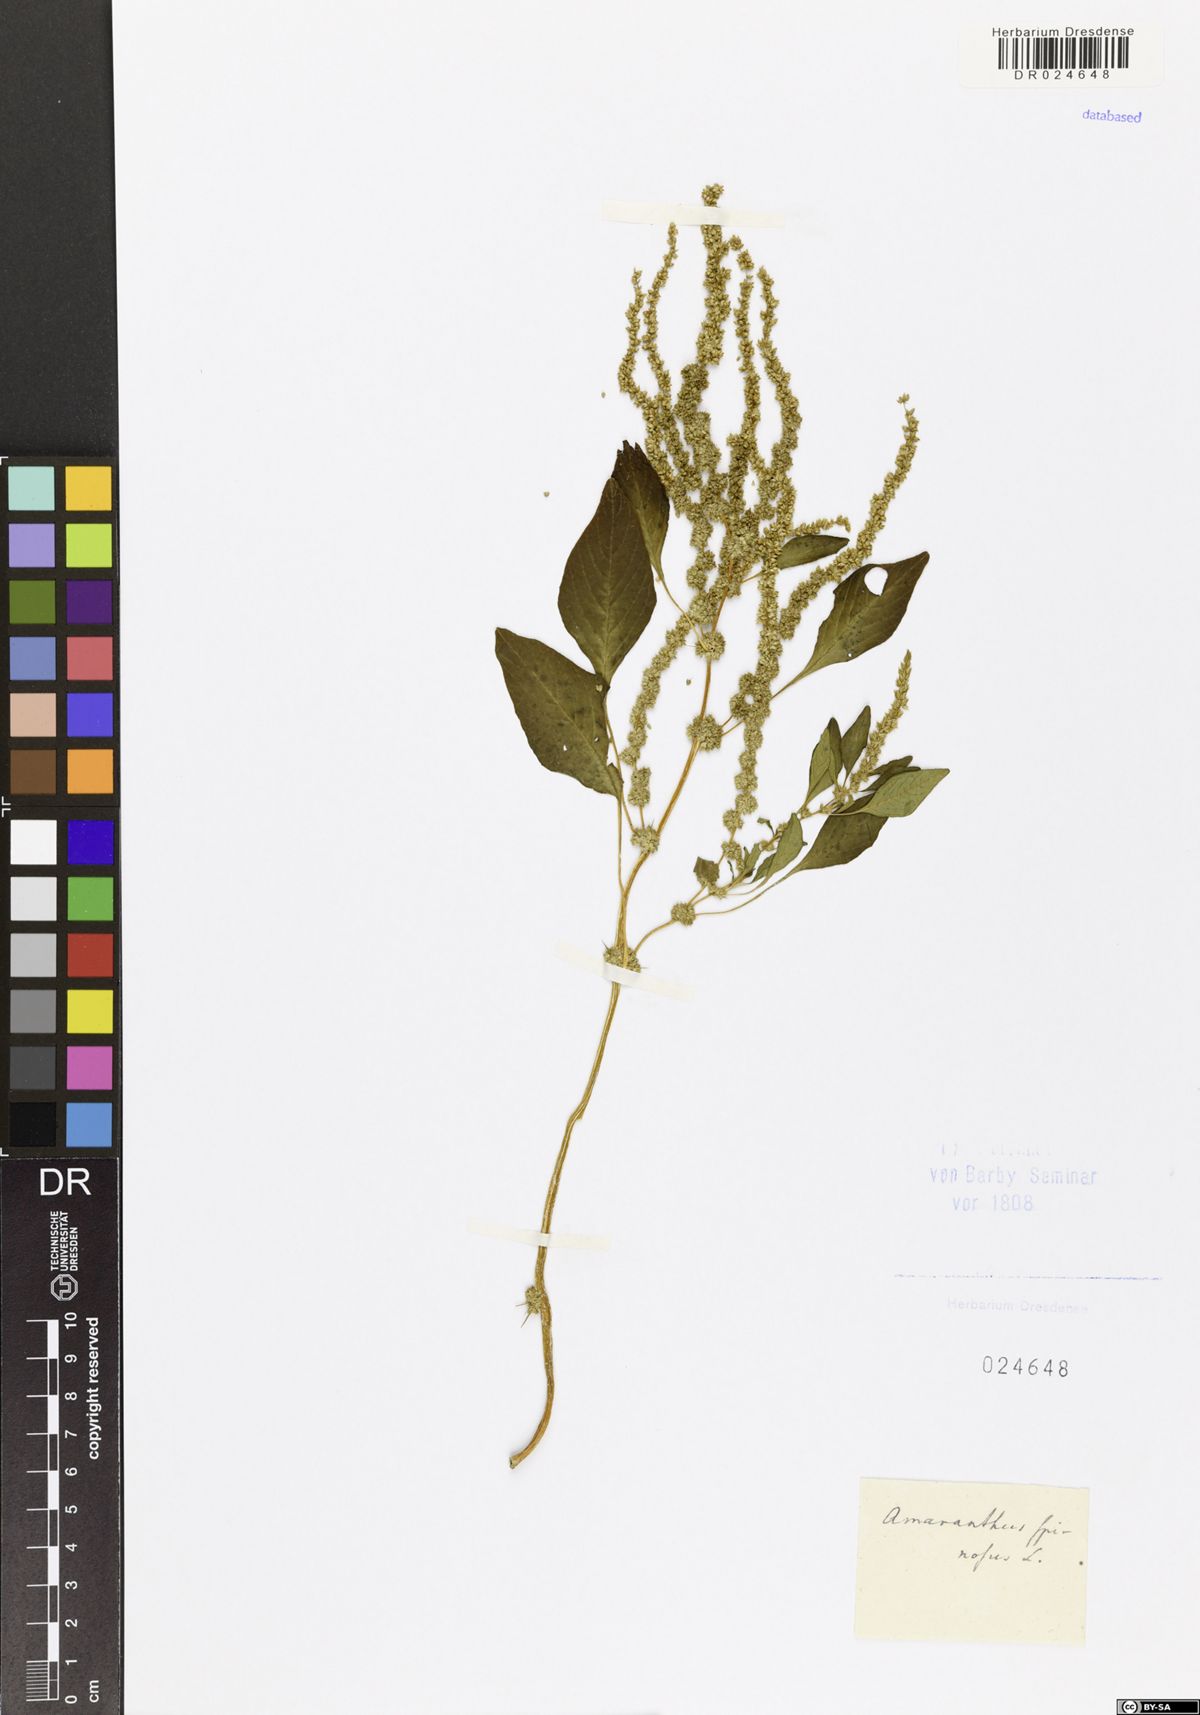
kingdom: Plantae
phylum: Tracheophyta
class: Magnoliopsida
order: Caryophyllales
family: Amaranthaceae
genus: Amaranthus
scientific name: Amaranthus spinosus
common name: Spiny amaranth
